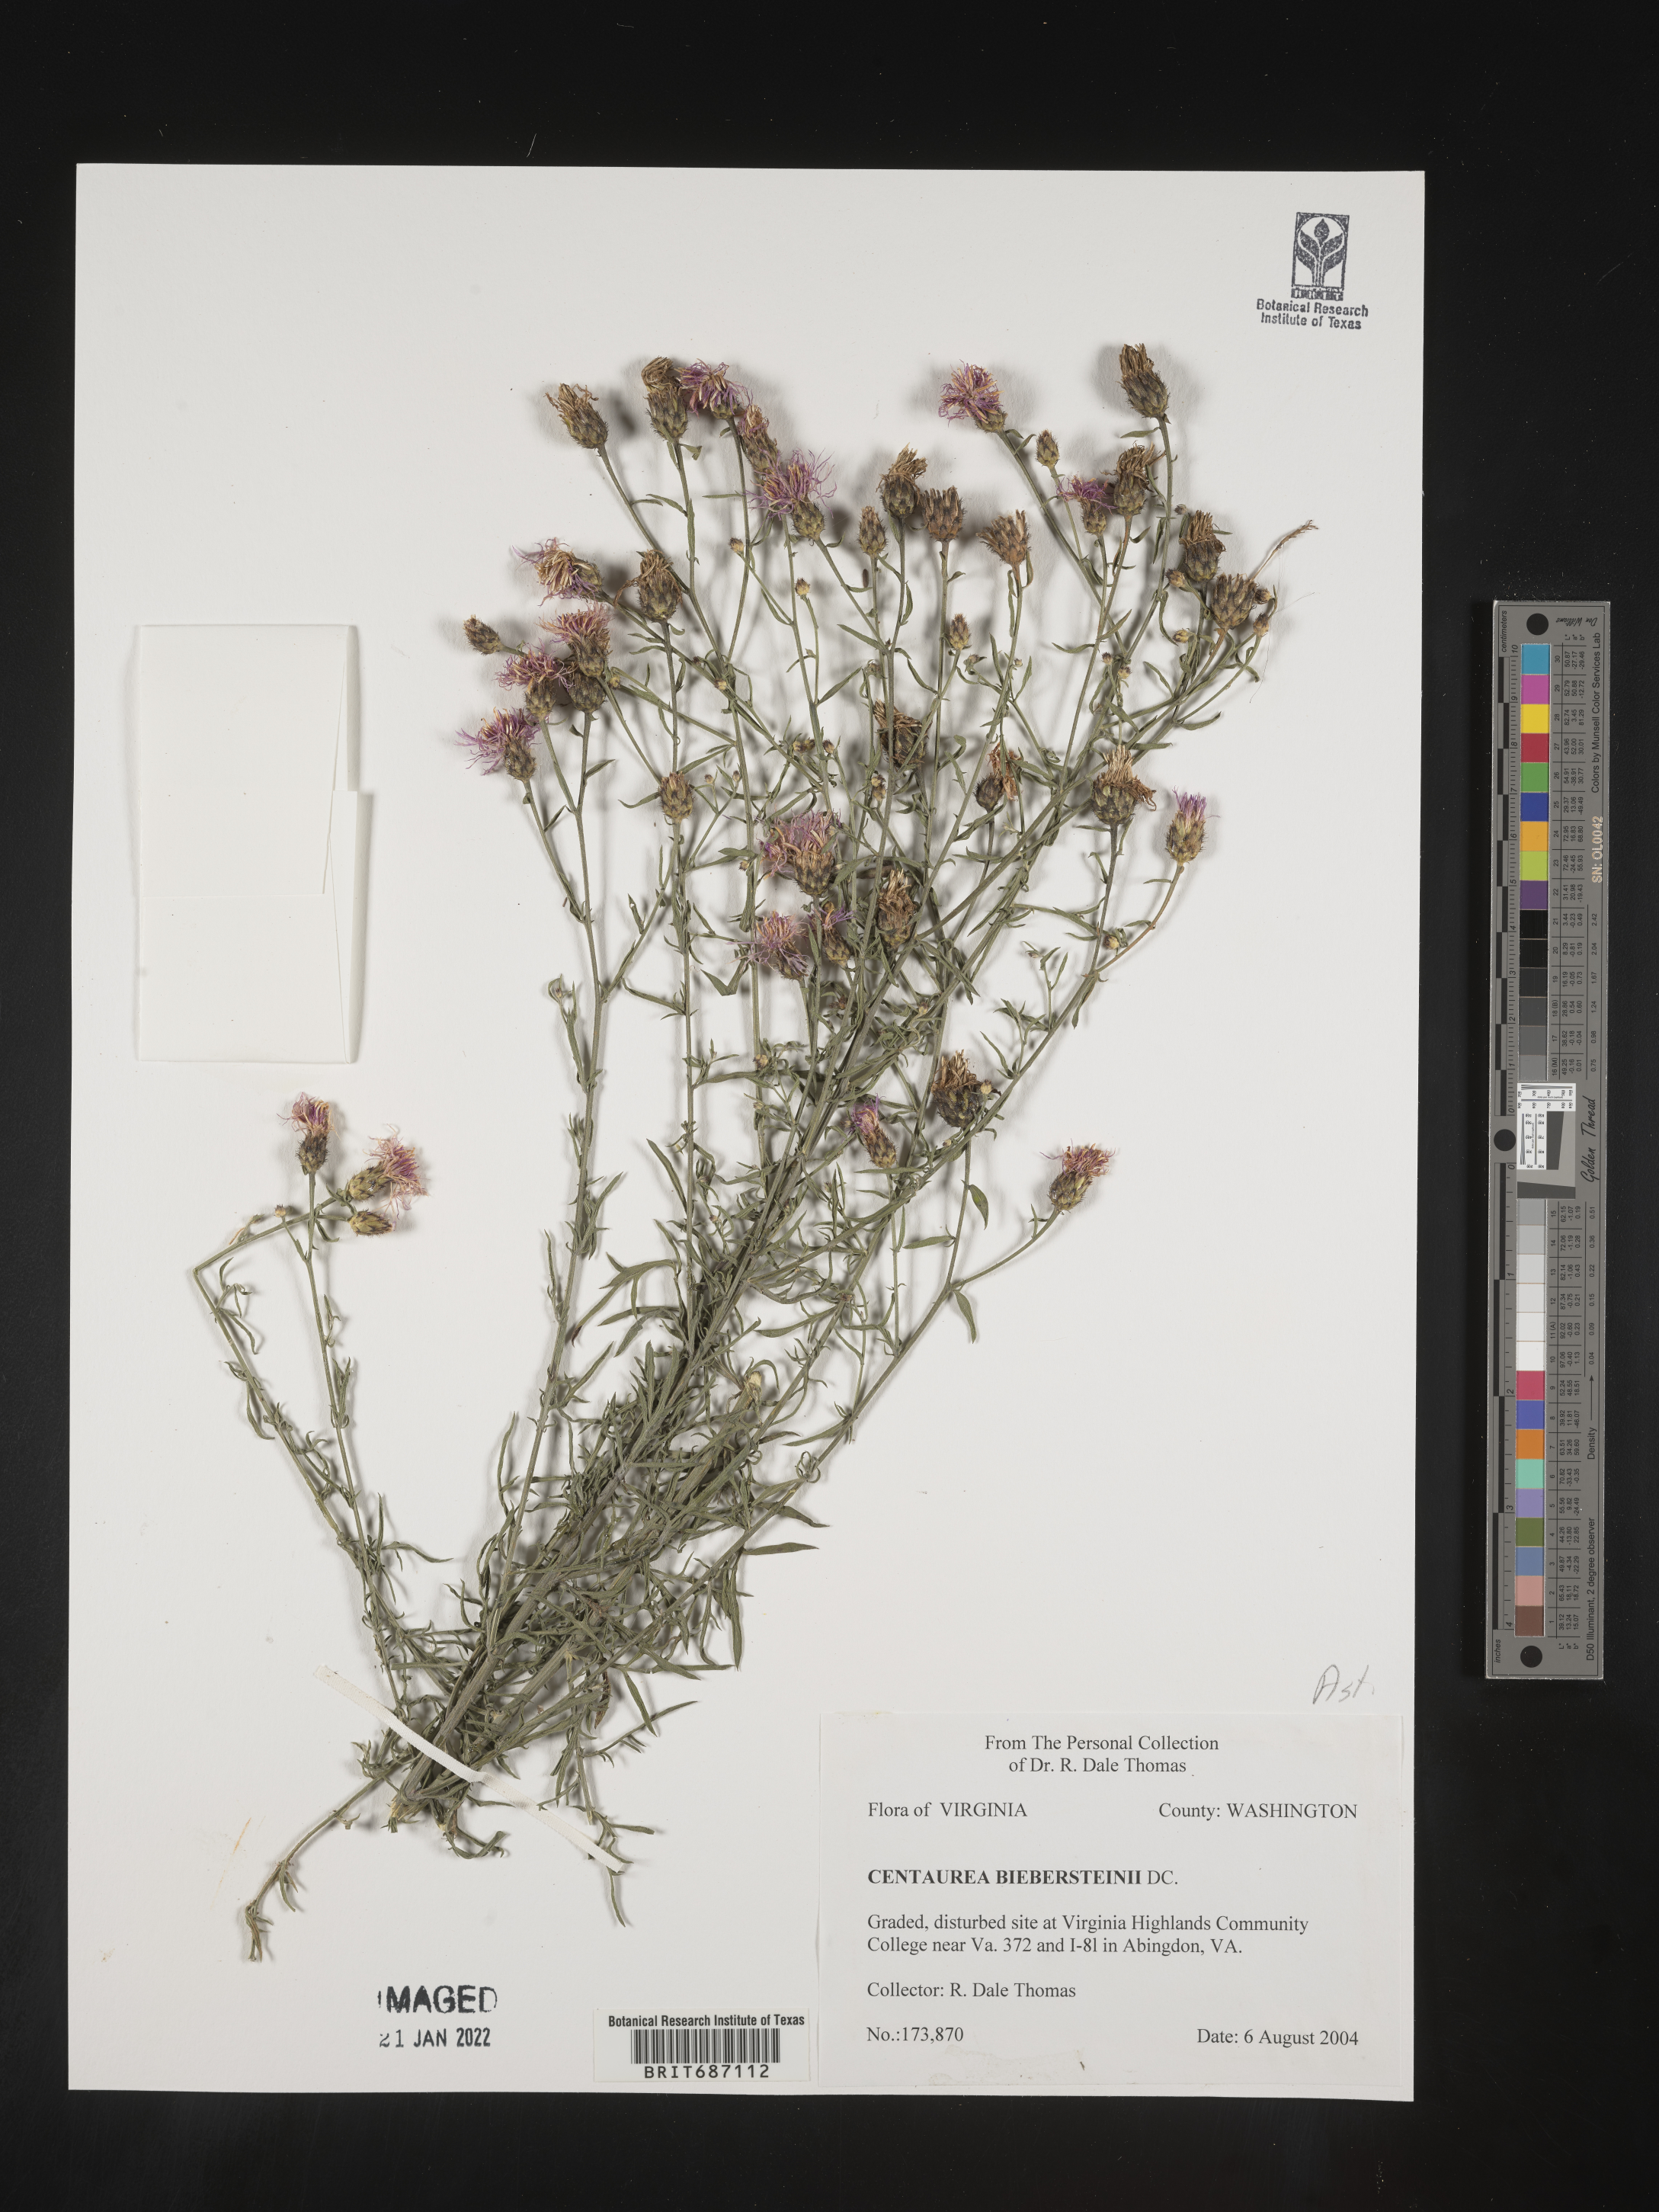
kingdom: Plantae
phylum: Tracheophyta
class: Magnoliopsida
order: Asterales
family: Asteraceae
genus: Centaurea
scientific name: Centaurea stoebe
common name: Spotted knapweed
